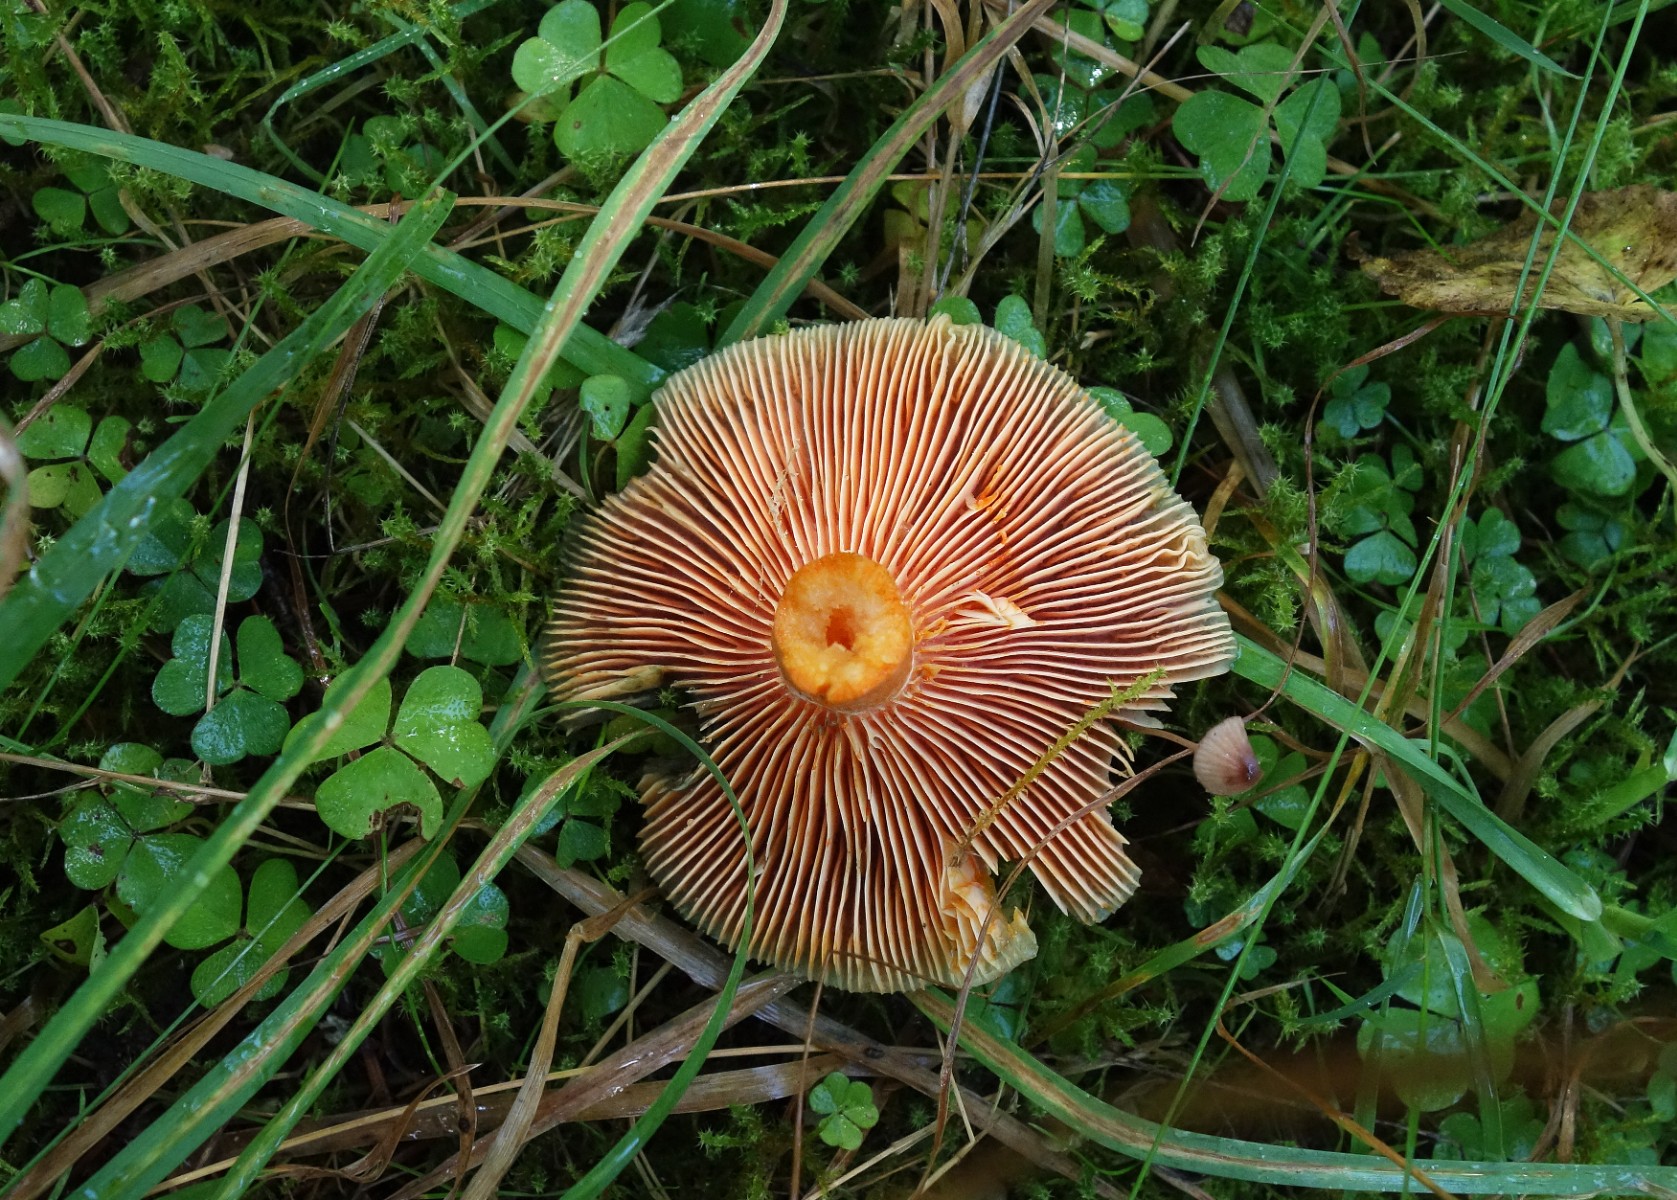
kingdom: Fungi
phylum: Basidiomycota
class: Agaricomycetes
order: Russulales
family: Russulaceae
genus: Lactarius
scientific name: Lactarius deterrimus
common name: gran-mælkehat
